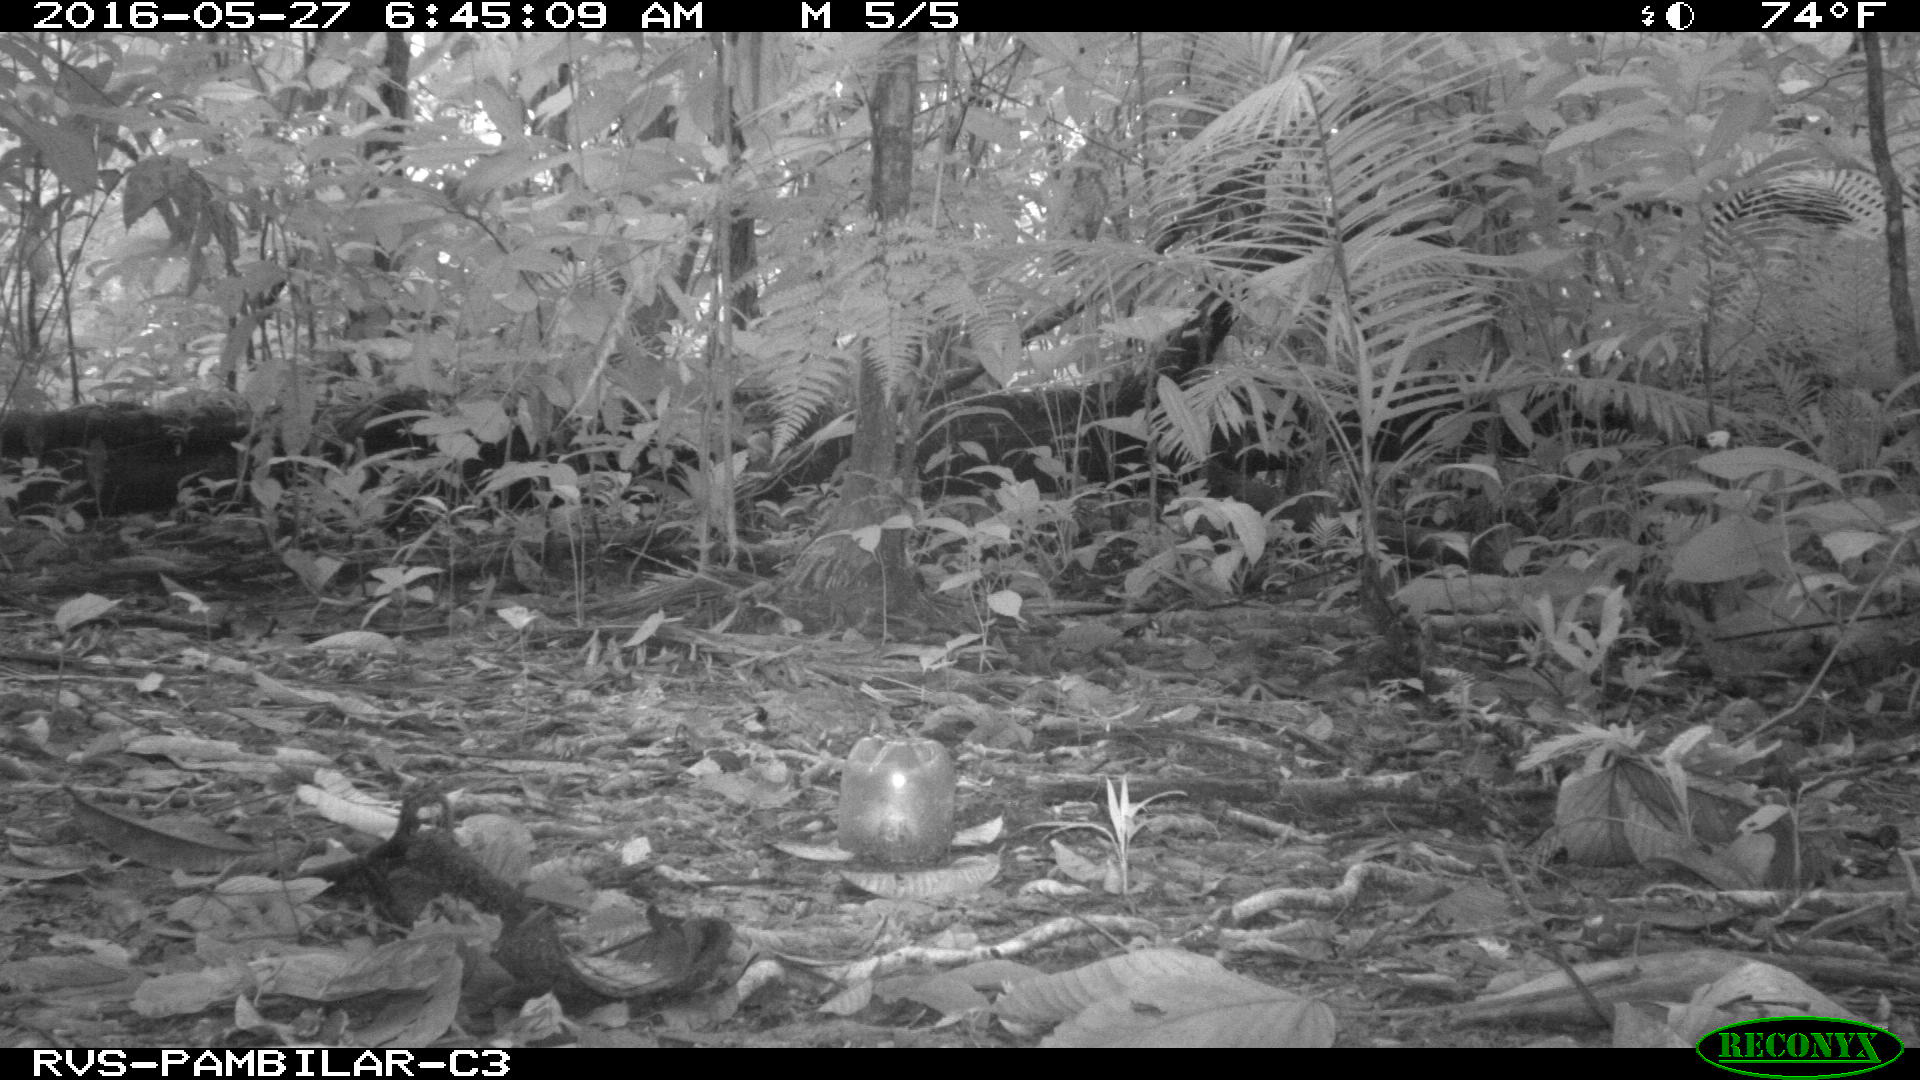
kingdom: Animalia
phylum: Chordata
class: Mammalia
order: Rodentia
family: Dasyproctidae
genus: Dasyprocta
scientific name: Dasyprocta punctata
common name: Central american agouti
